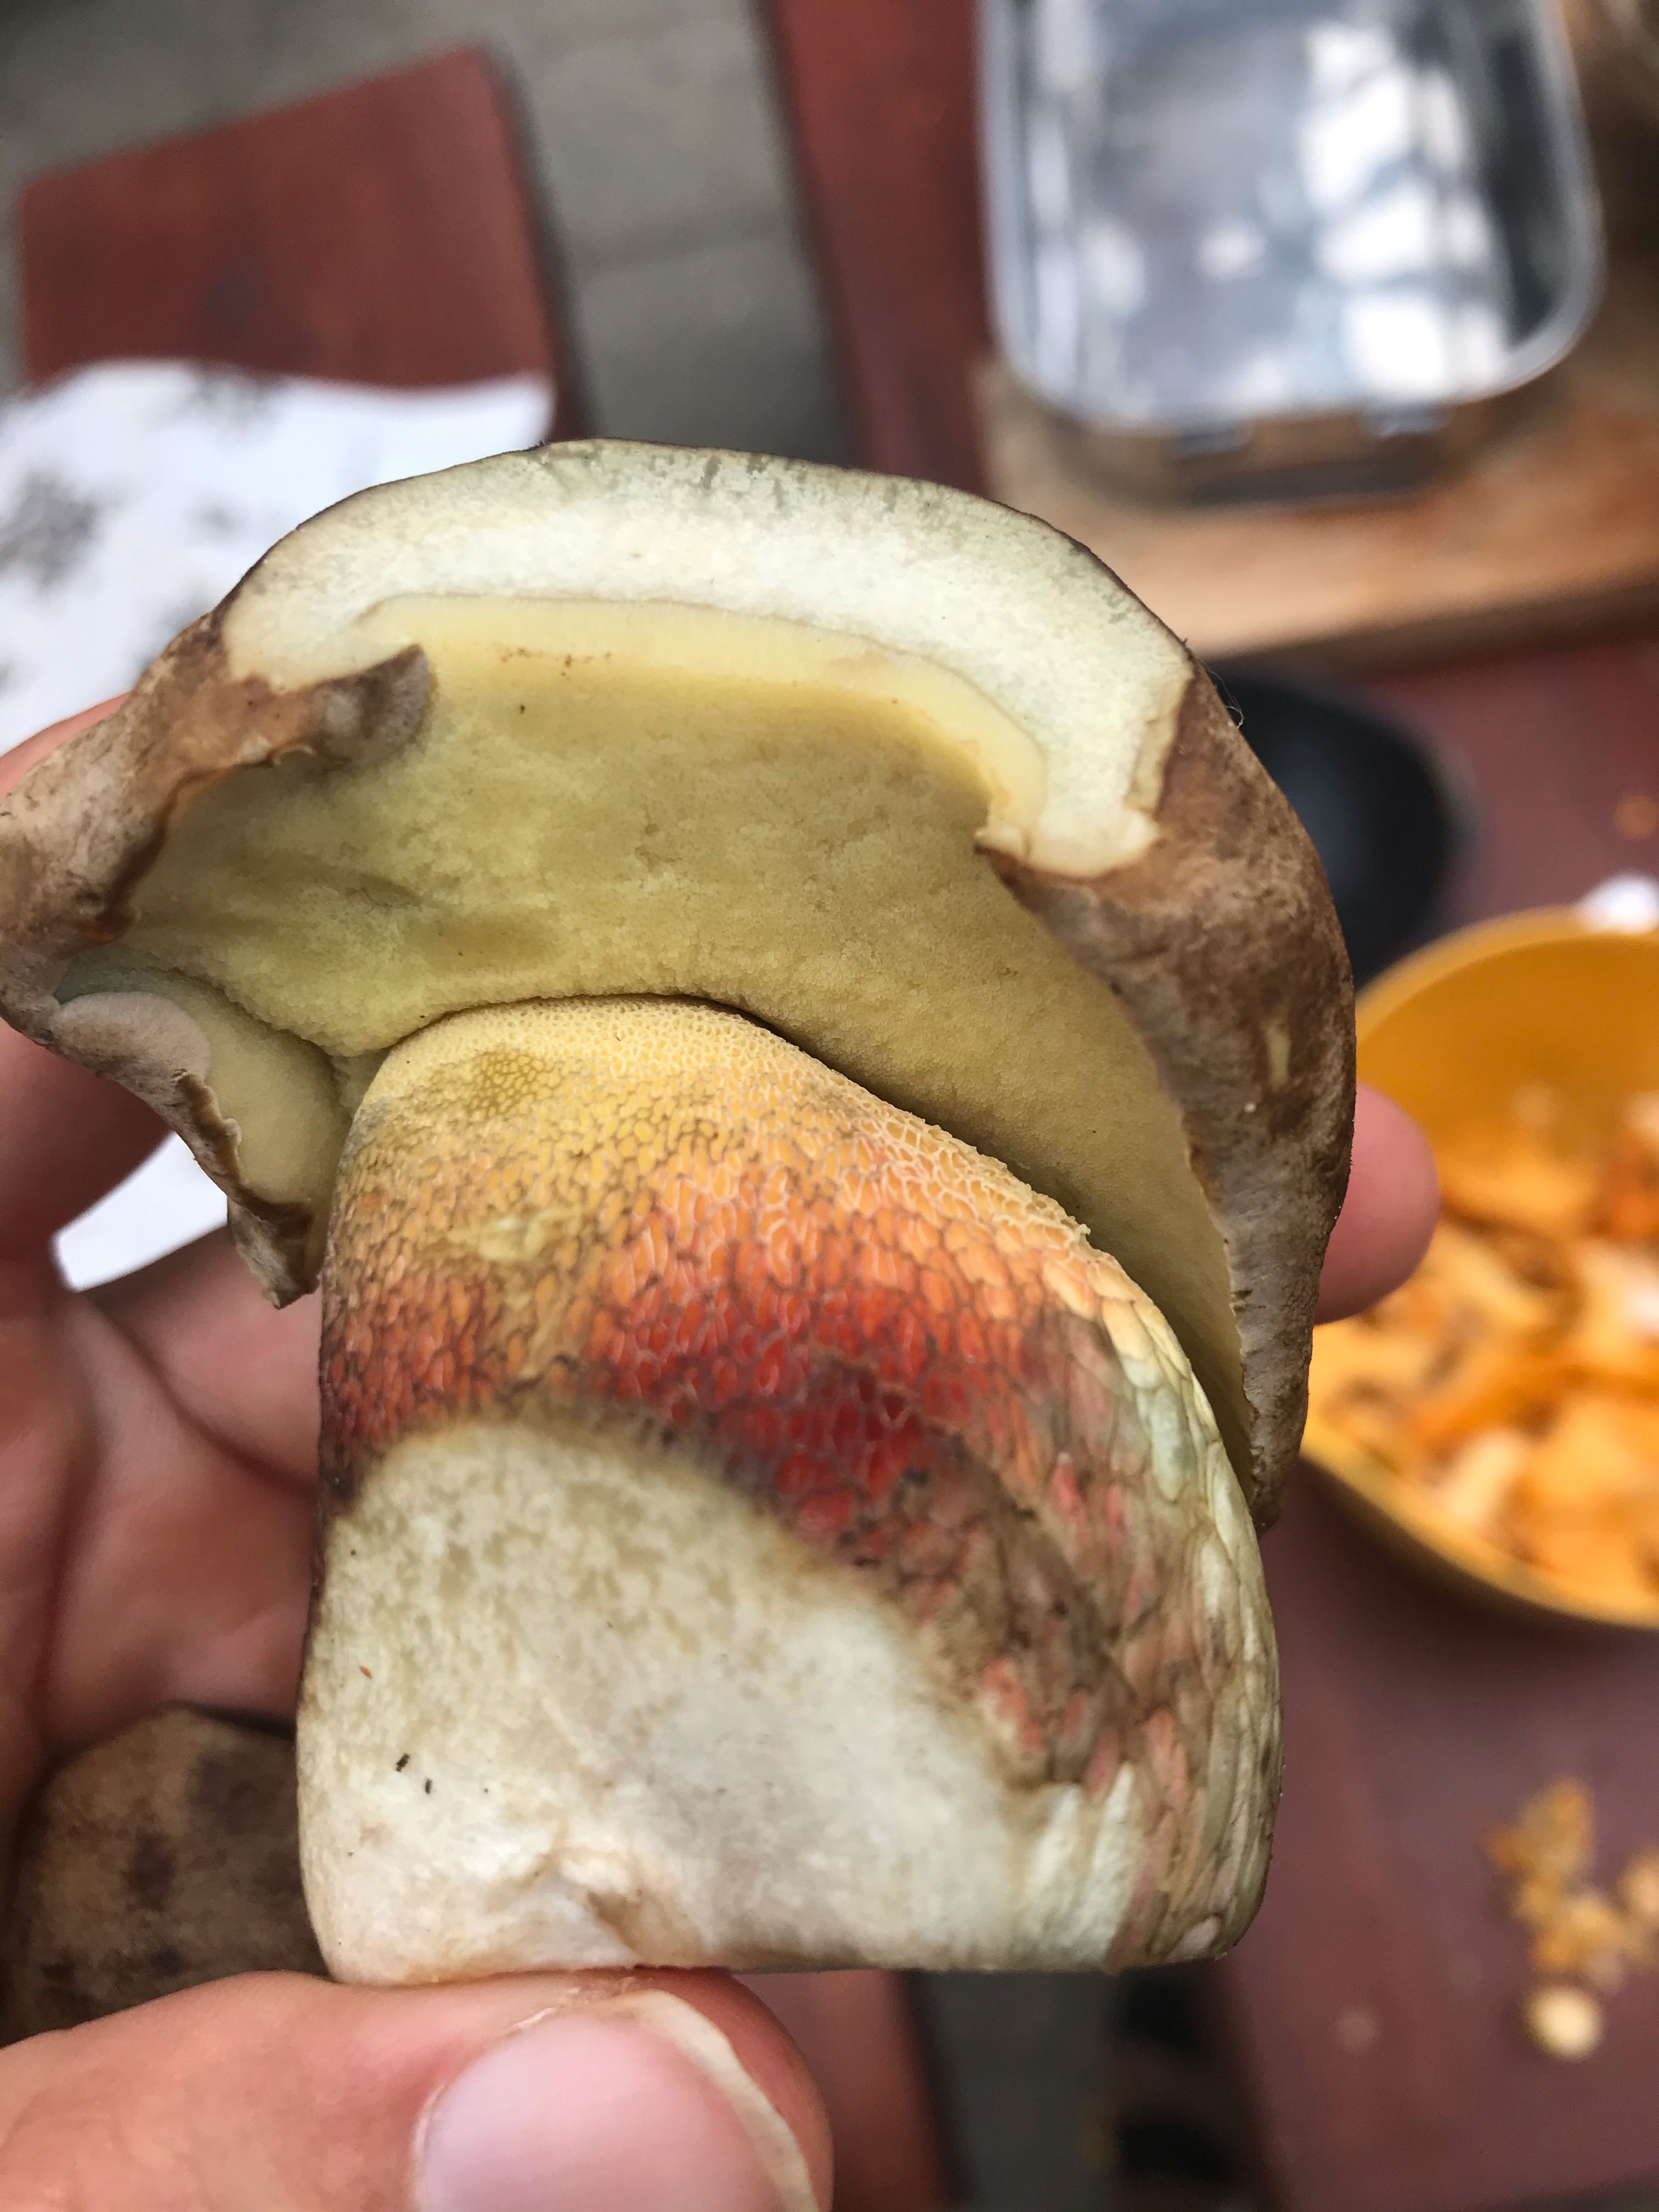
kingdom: Fungi
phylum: Basidiomycota
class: Agaricomycetes
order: Boletales
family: Boletaceae
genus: Caloboletus
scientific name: Caloboletus calopus
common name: skønfodet rørhat
